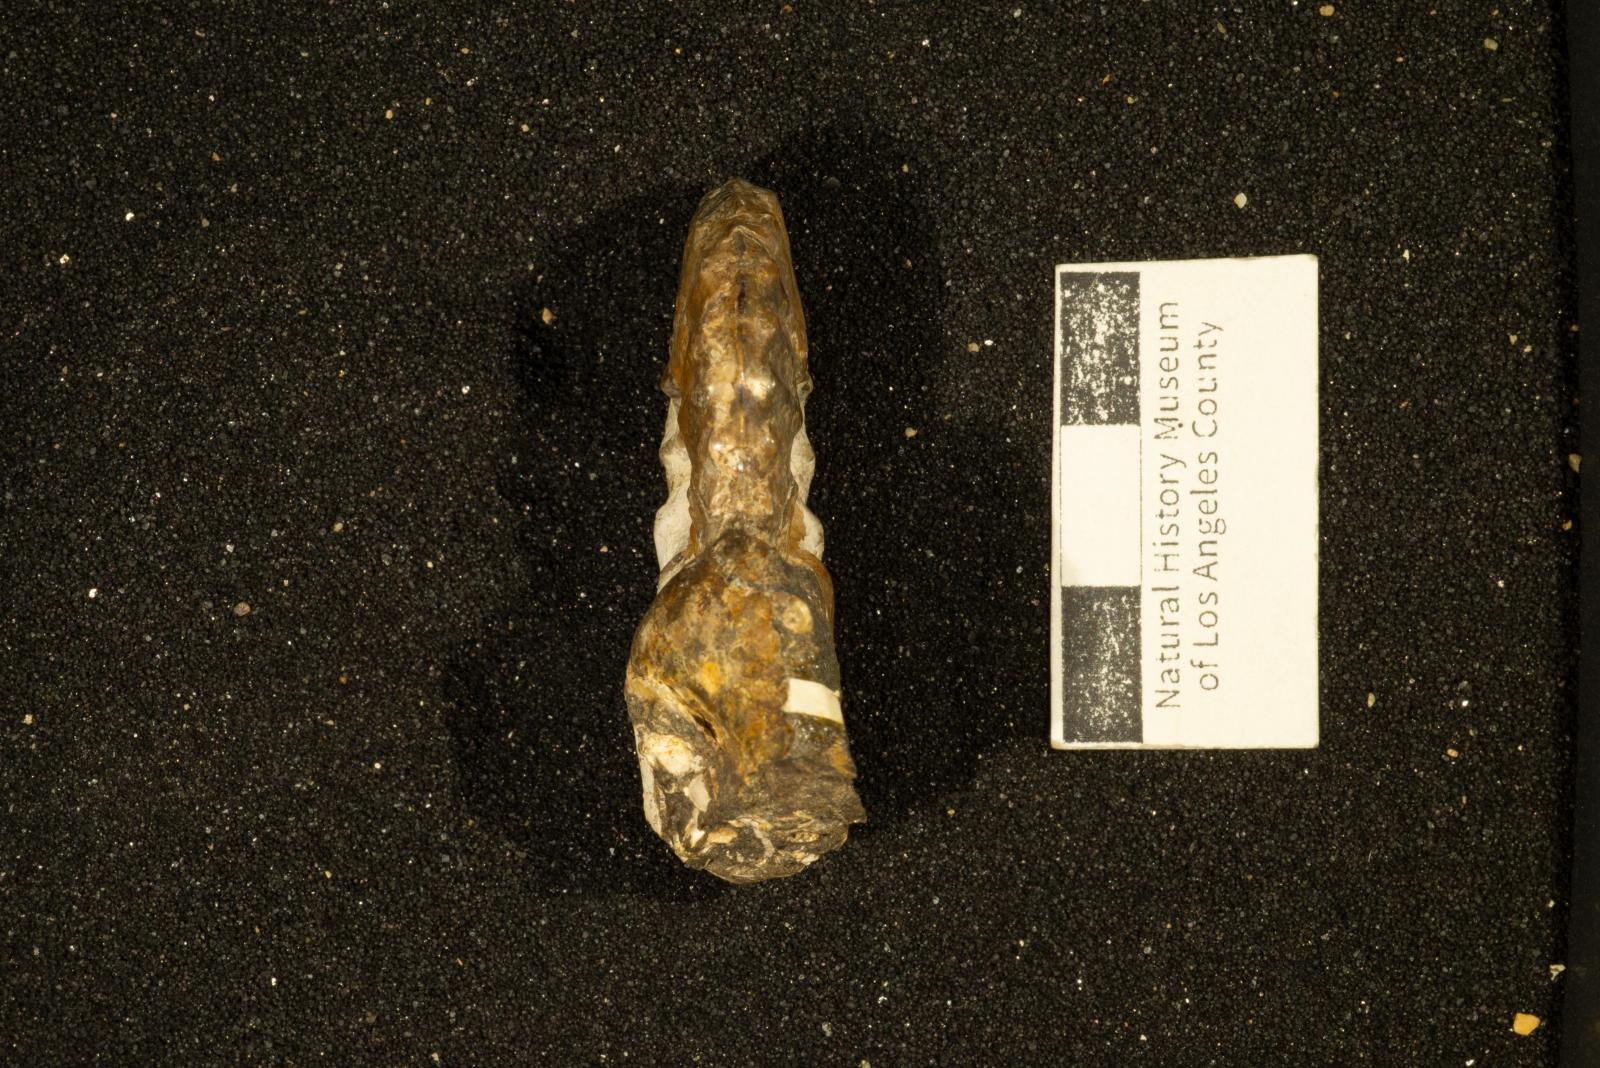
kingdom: Animalia
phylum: Mollusca
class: Cephalopoda
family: Collignoniceratidae
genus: Subprionocyclus
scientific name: Subprionocyclus
